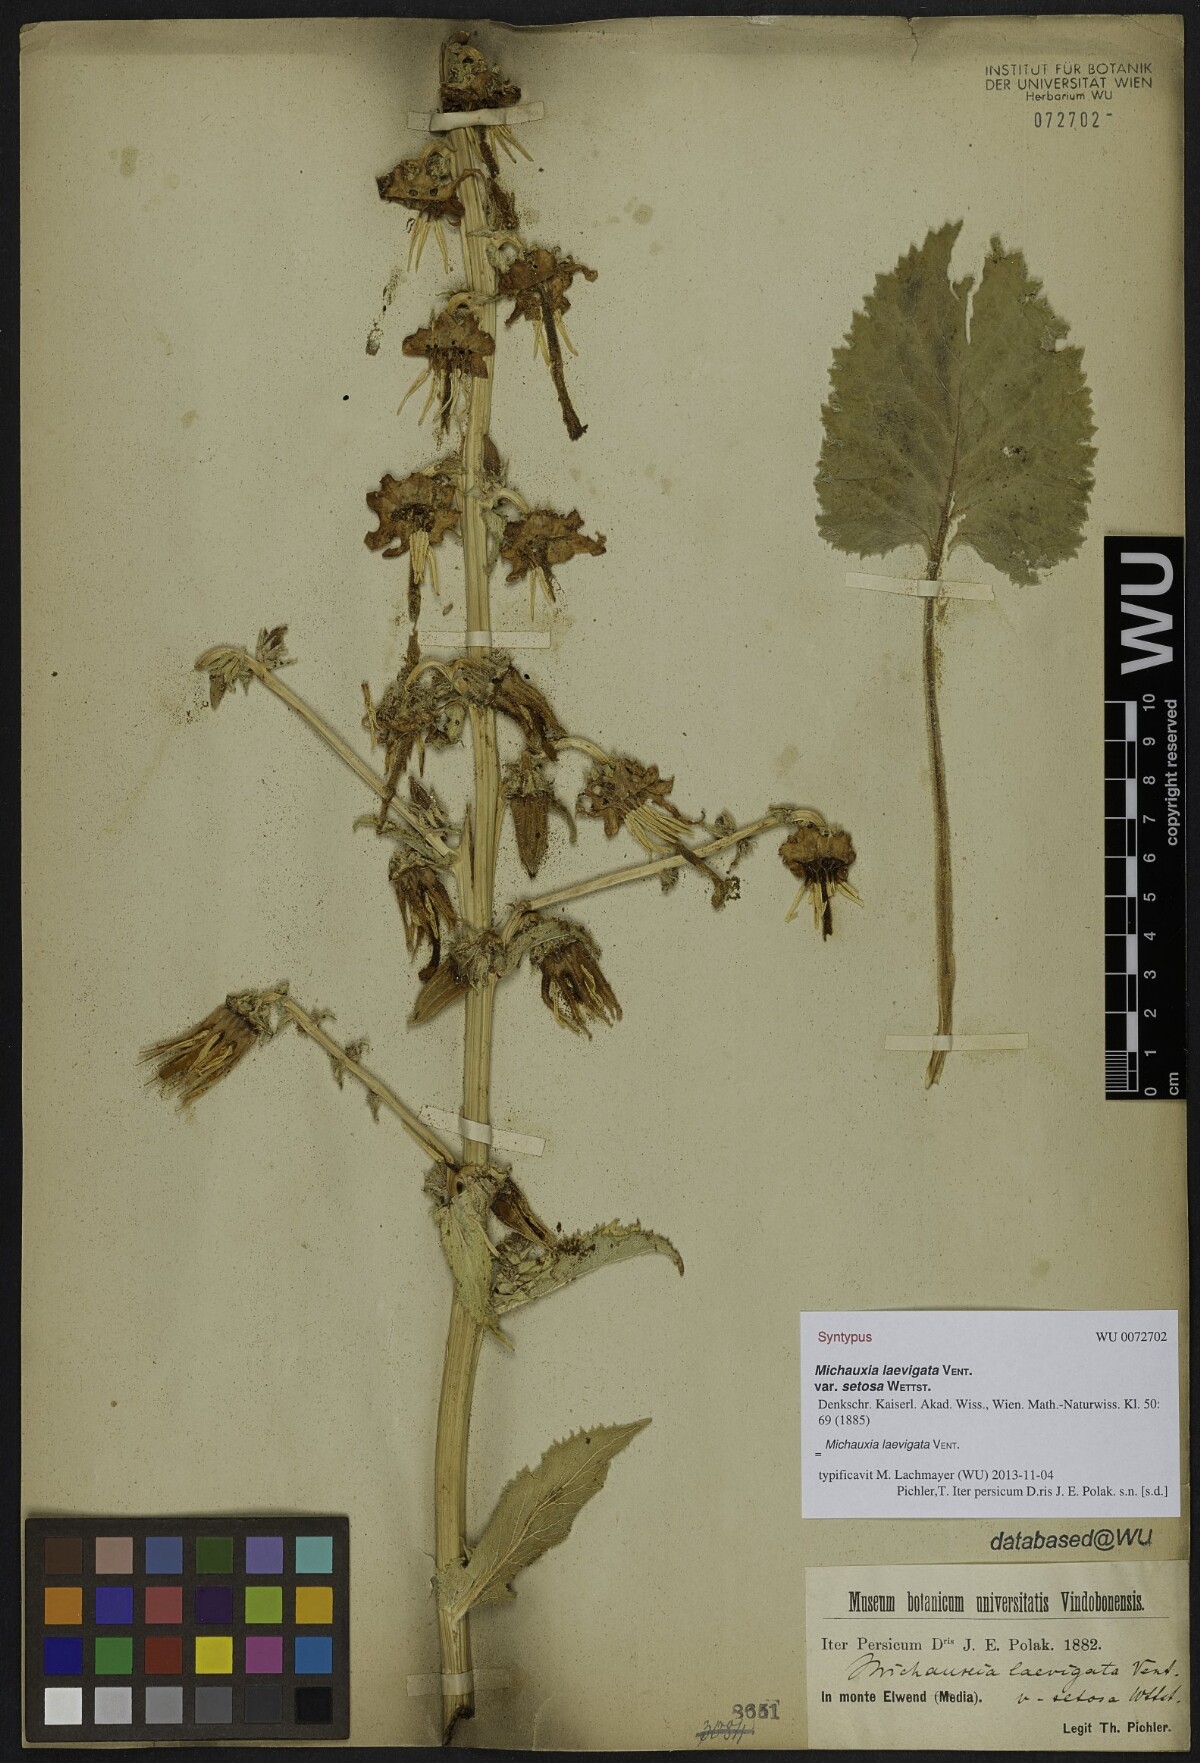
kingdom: Plantae
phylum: Tracheophyta
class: Magnoliopsida
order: Asterales
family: Campanulaceae
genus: Michauxia
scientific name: Michauxia laevigata
